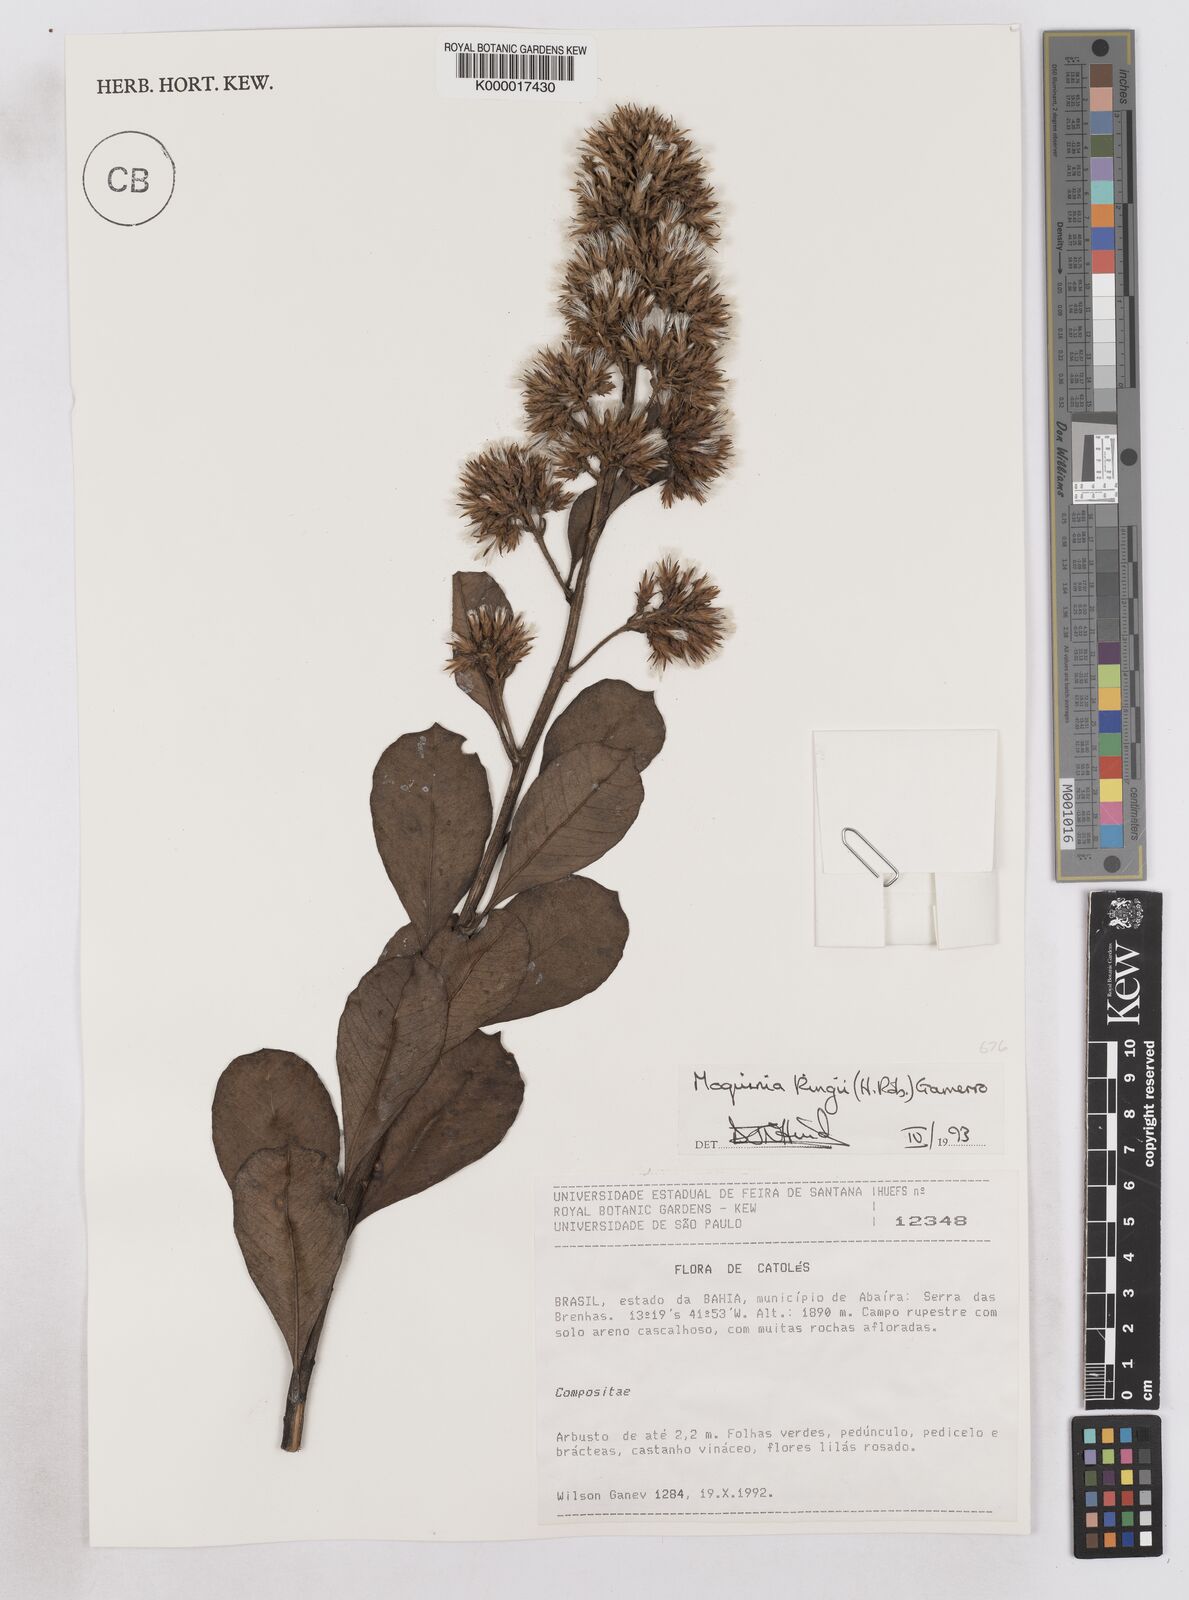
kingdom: Plantae
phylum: Tracheophyta
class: Magnoliopsida
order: Asterales
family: Asteraceae
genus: Pseudostifftia
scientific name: Pseudostifftia kingii
